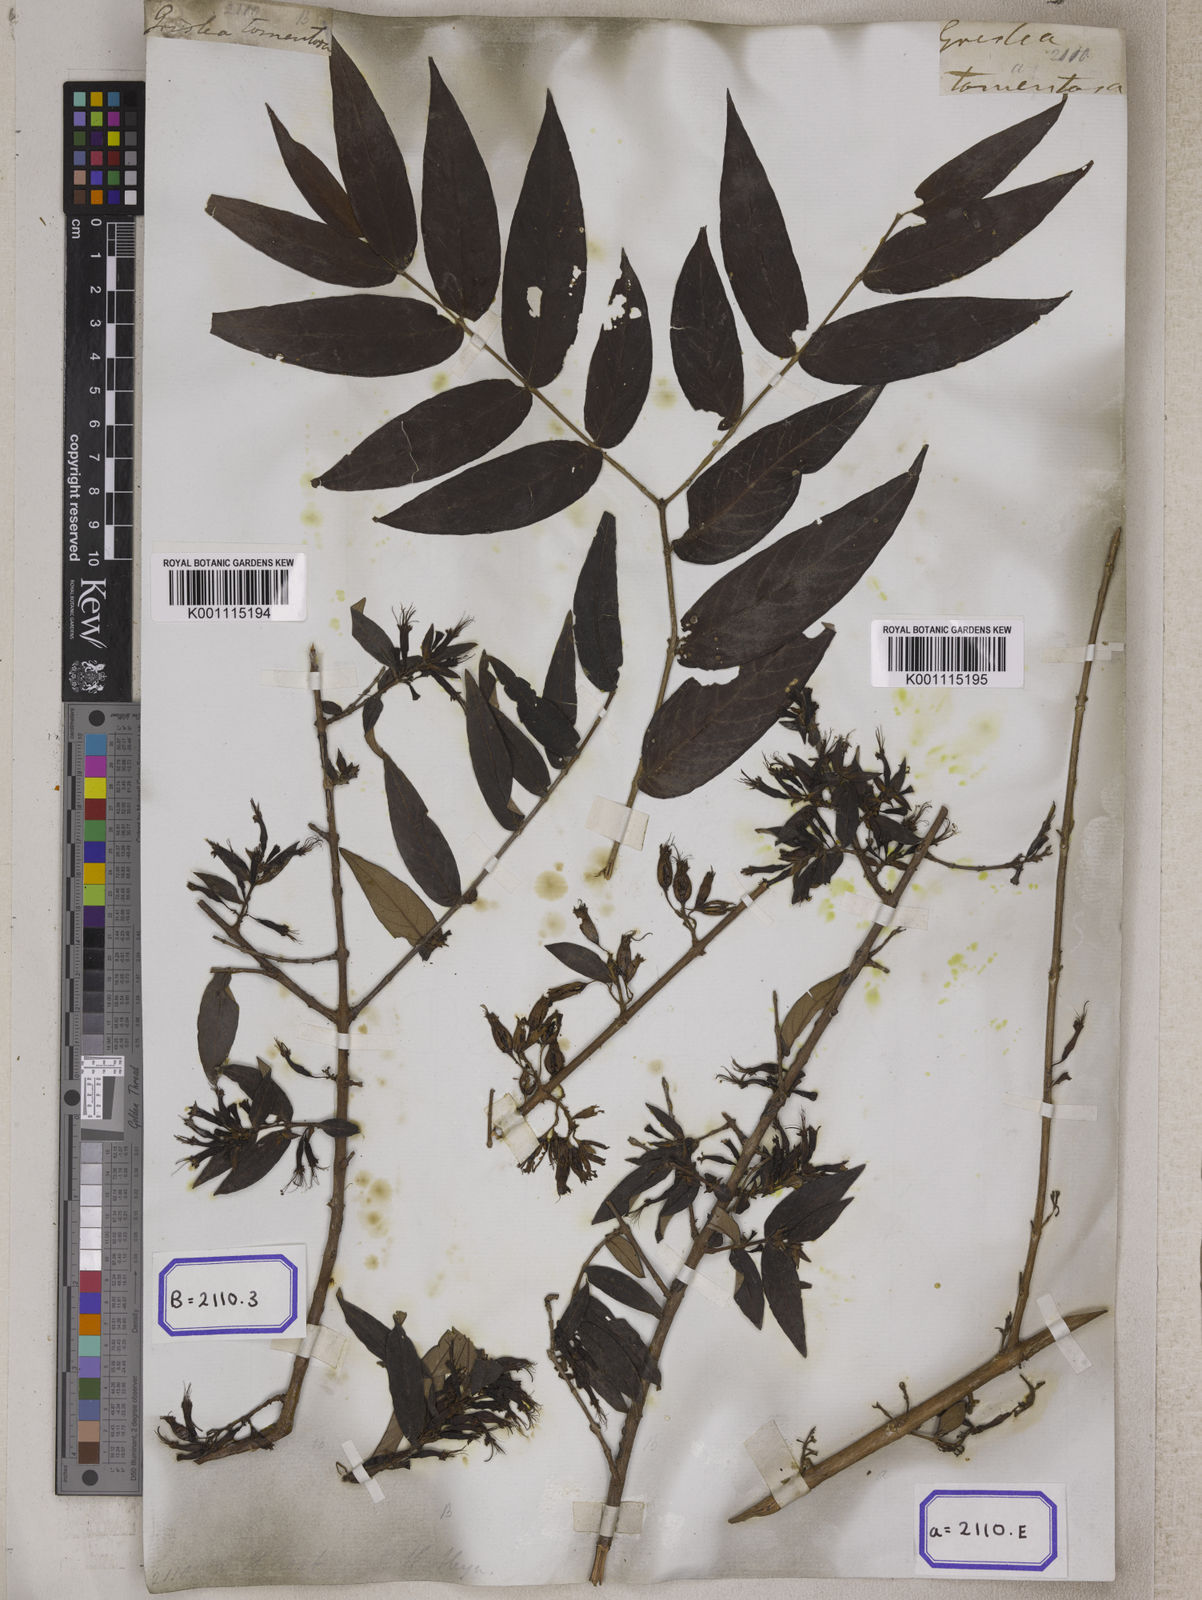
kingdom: Plantae
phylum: Tracheophyta
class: Magnoliopsida
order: Myrtales
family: Combretaceae
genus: Combretum
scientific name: Combretum
